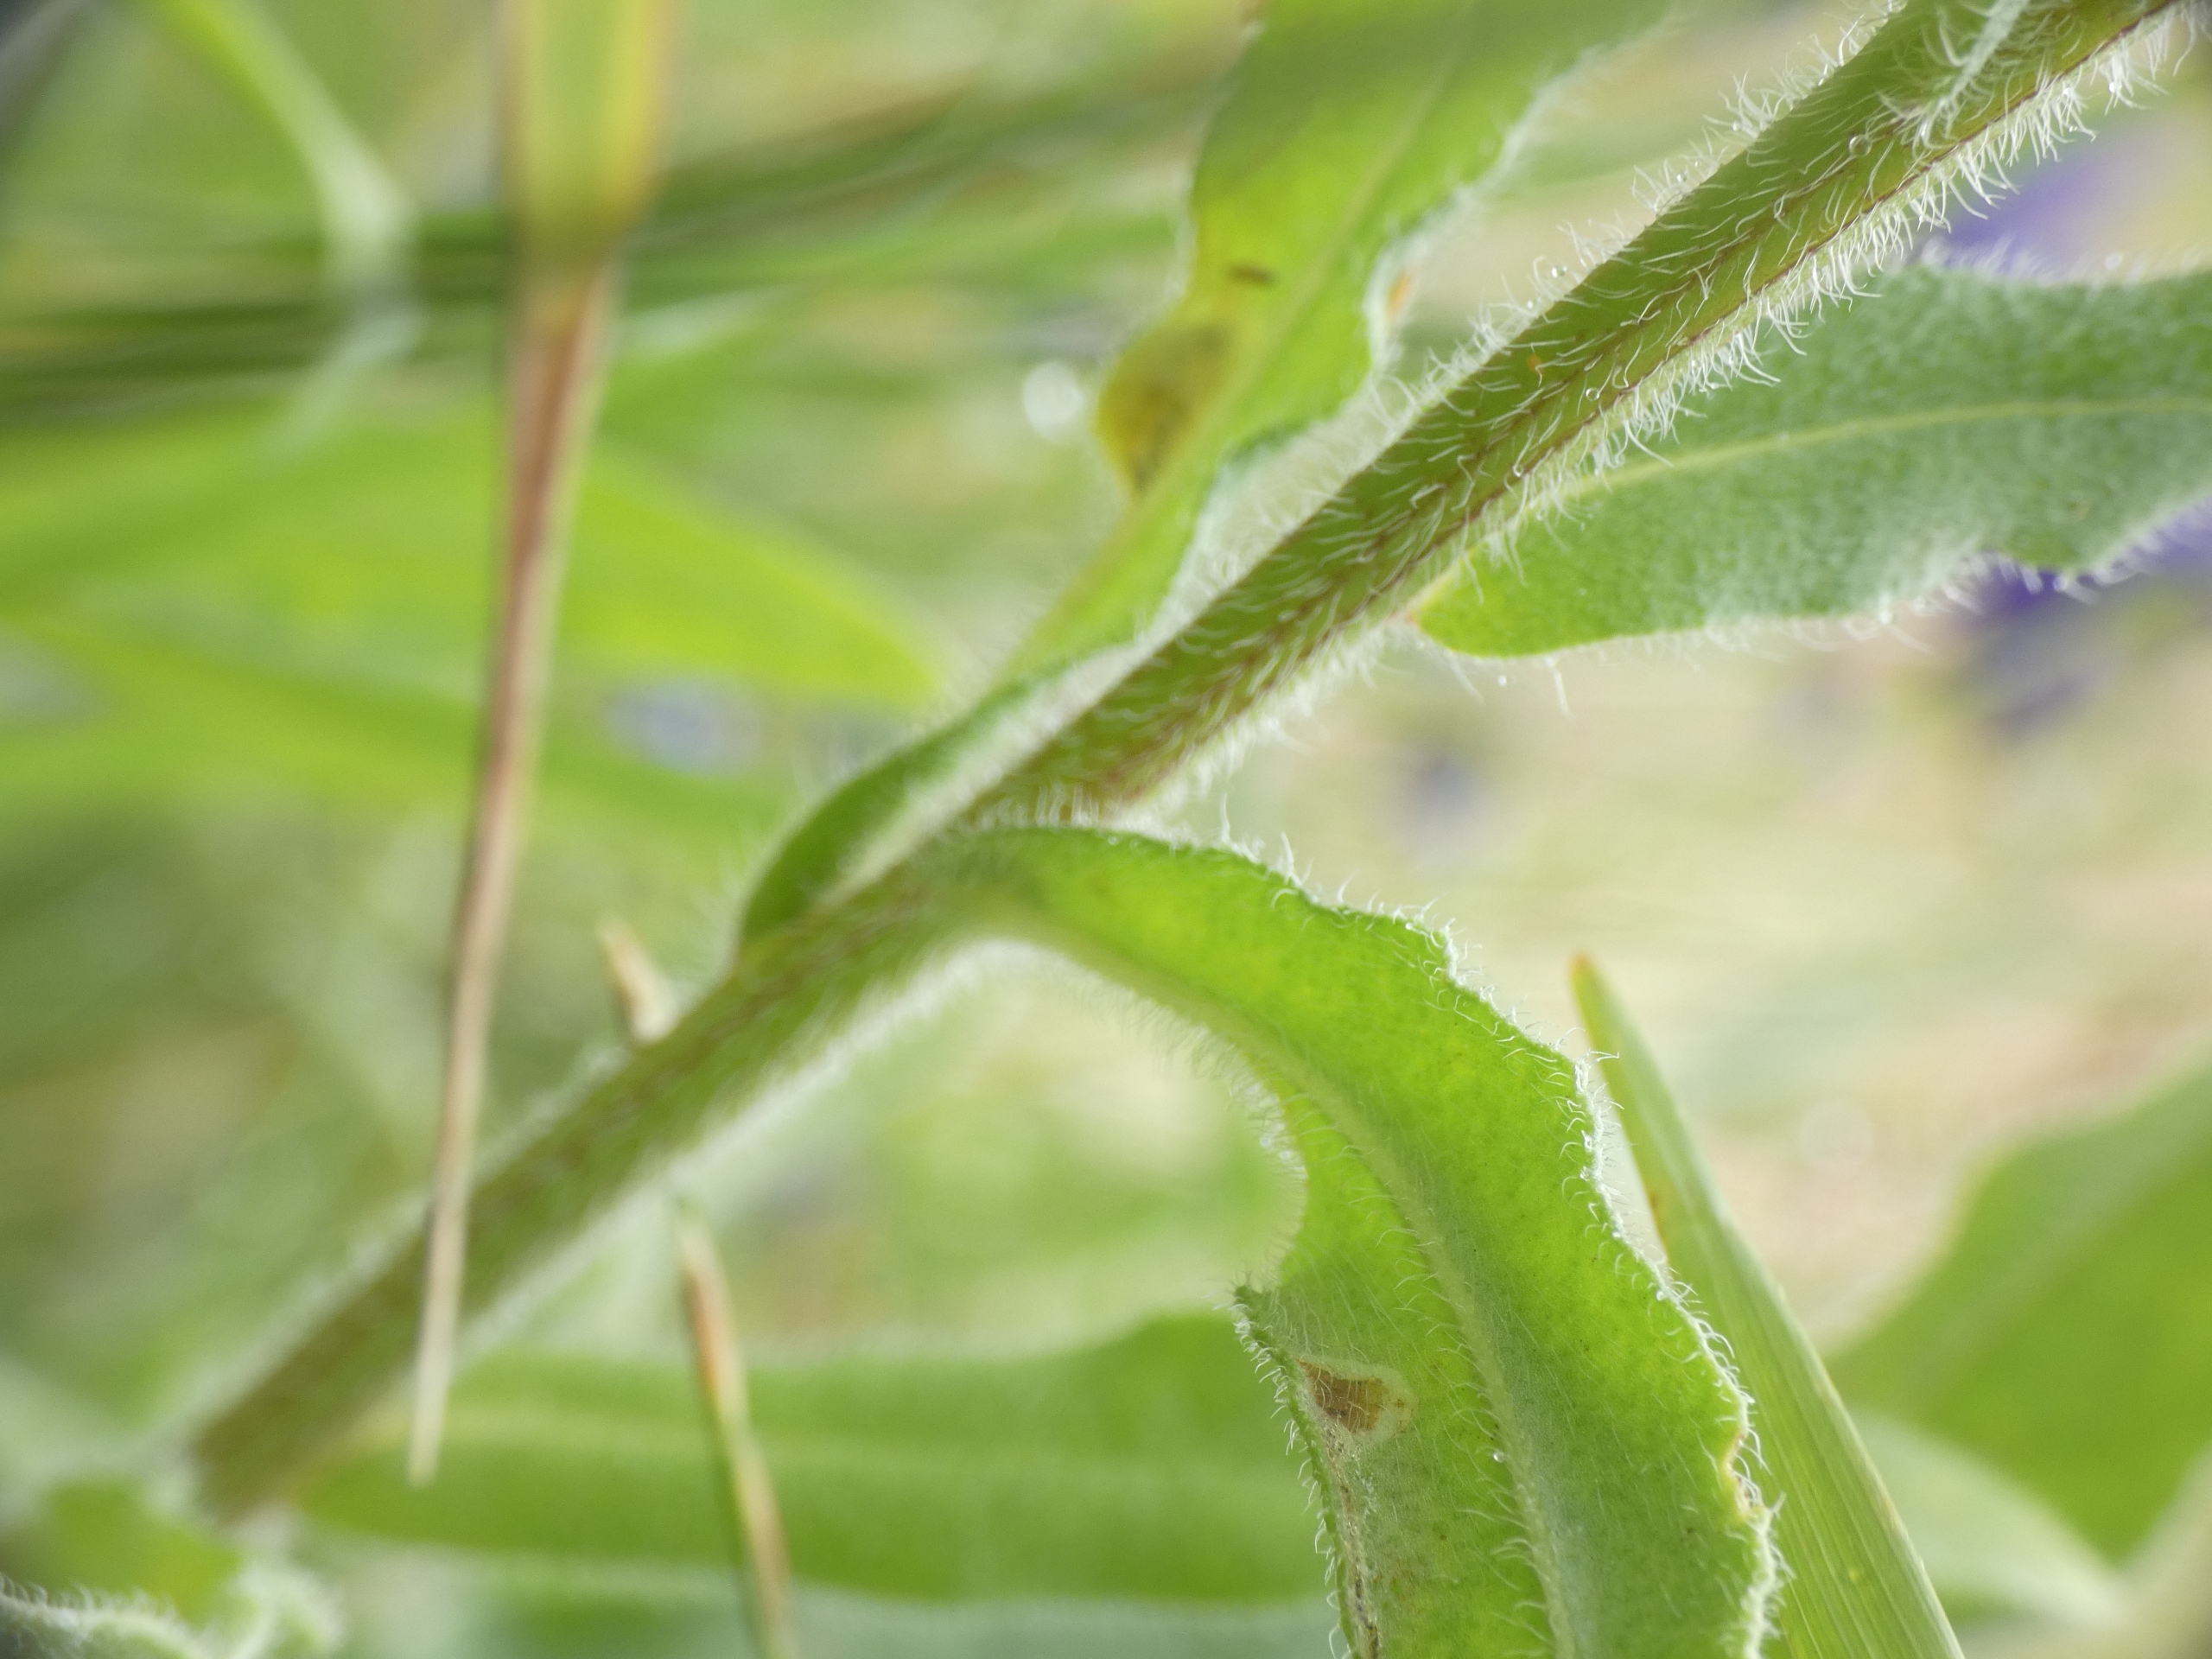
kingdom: Plantae
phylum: Tracheophyta
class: Magnoliopsida
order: Boraginales
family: Boraginaceae
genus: Anchusa
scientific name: Anchusa officinalis
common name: Læge-oksetunge
